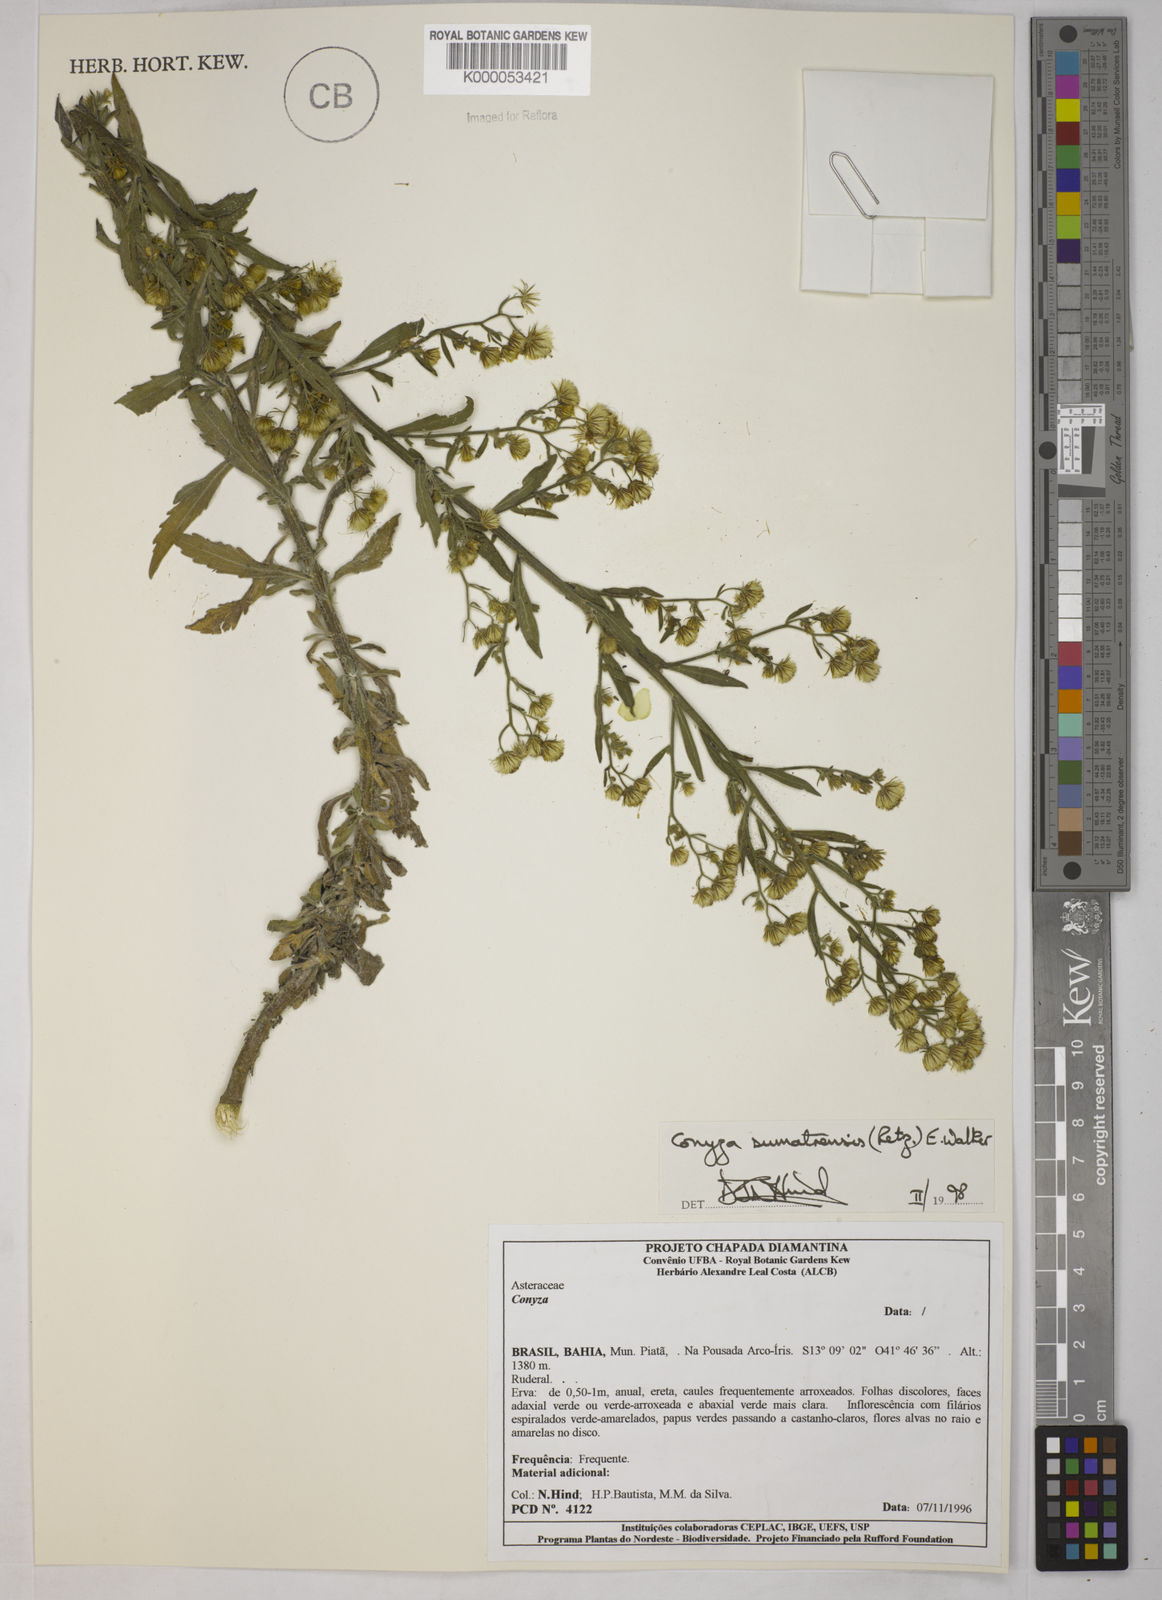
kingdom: Plantae
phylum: Tracheophyta
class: Magnoliopsida
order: Asterales
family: Asteraceae
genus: Erigeron
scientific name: Erigeron sumatrensis
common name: Daisy
